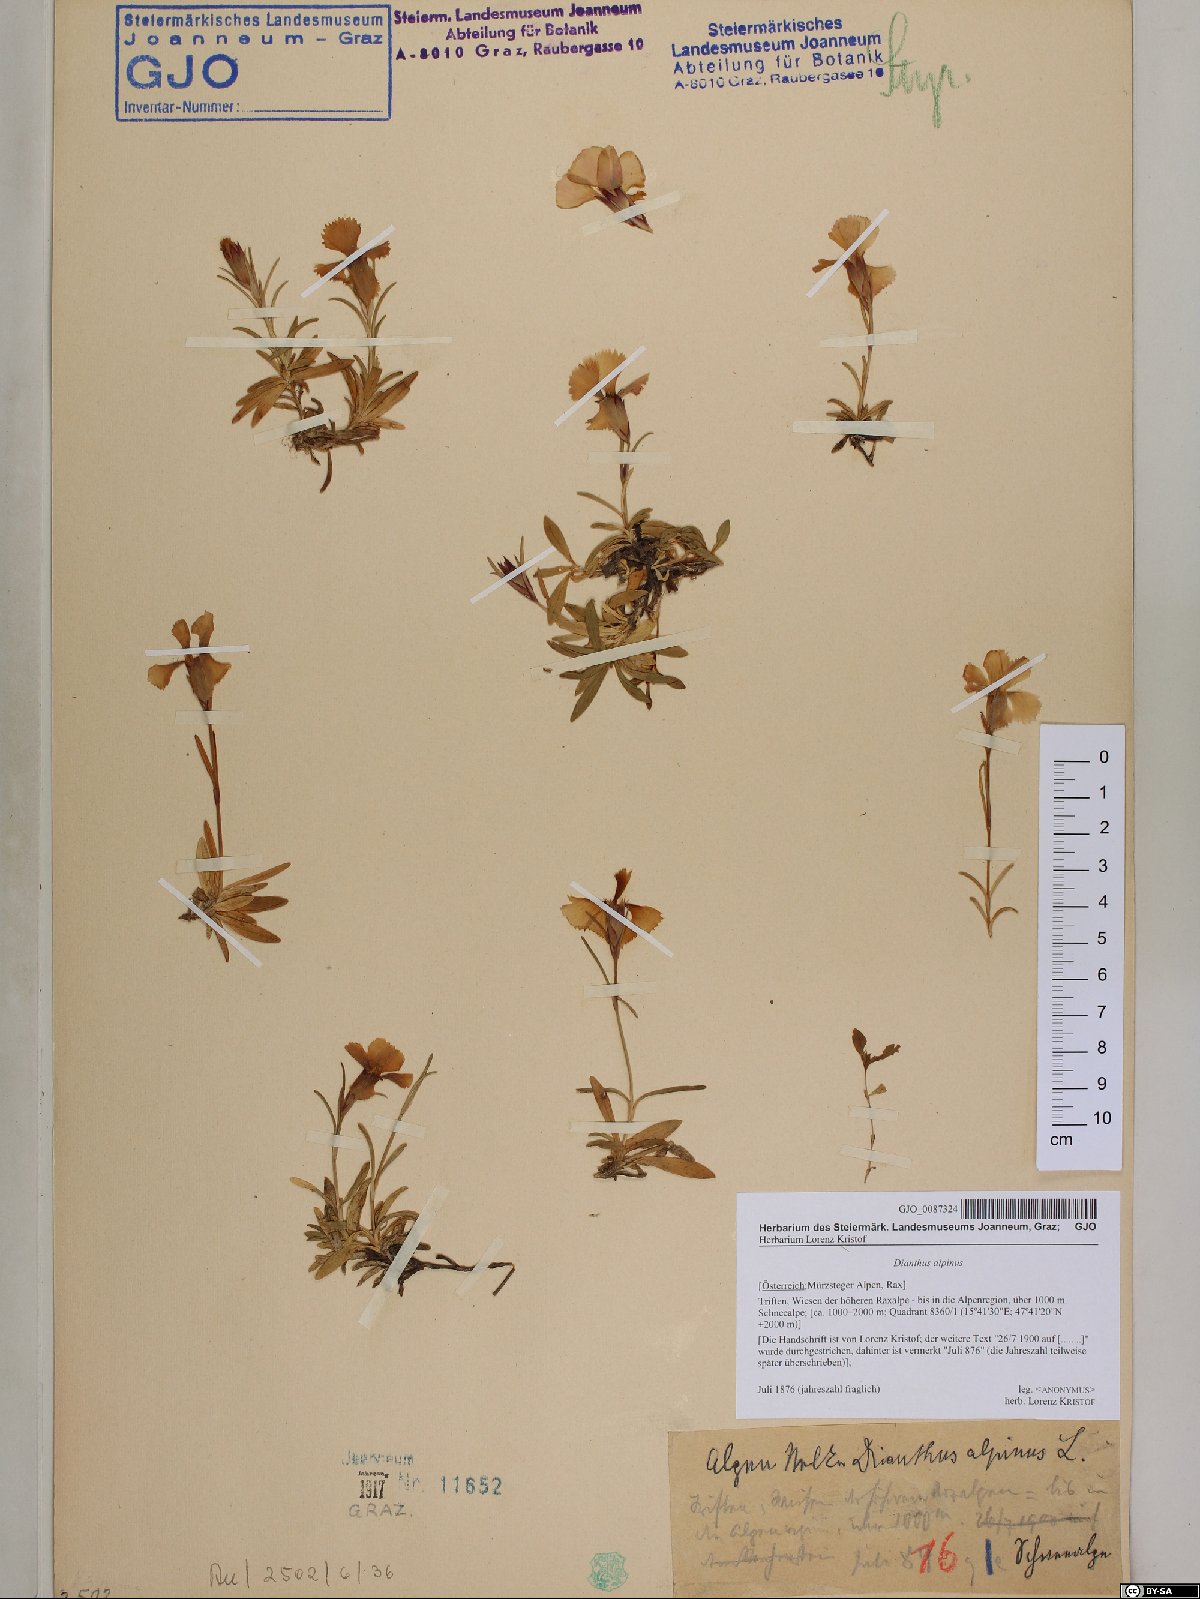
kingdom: Plantae
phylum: Tracheophyta
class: Magnoliopsida
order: Caryophyllales
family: Caryophyllaceae
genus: Dianthus
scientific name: Dianthus alpinus
